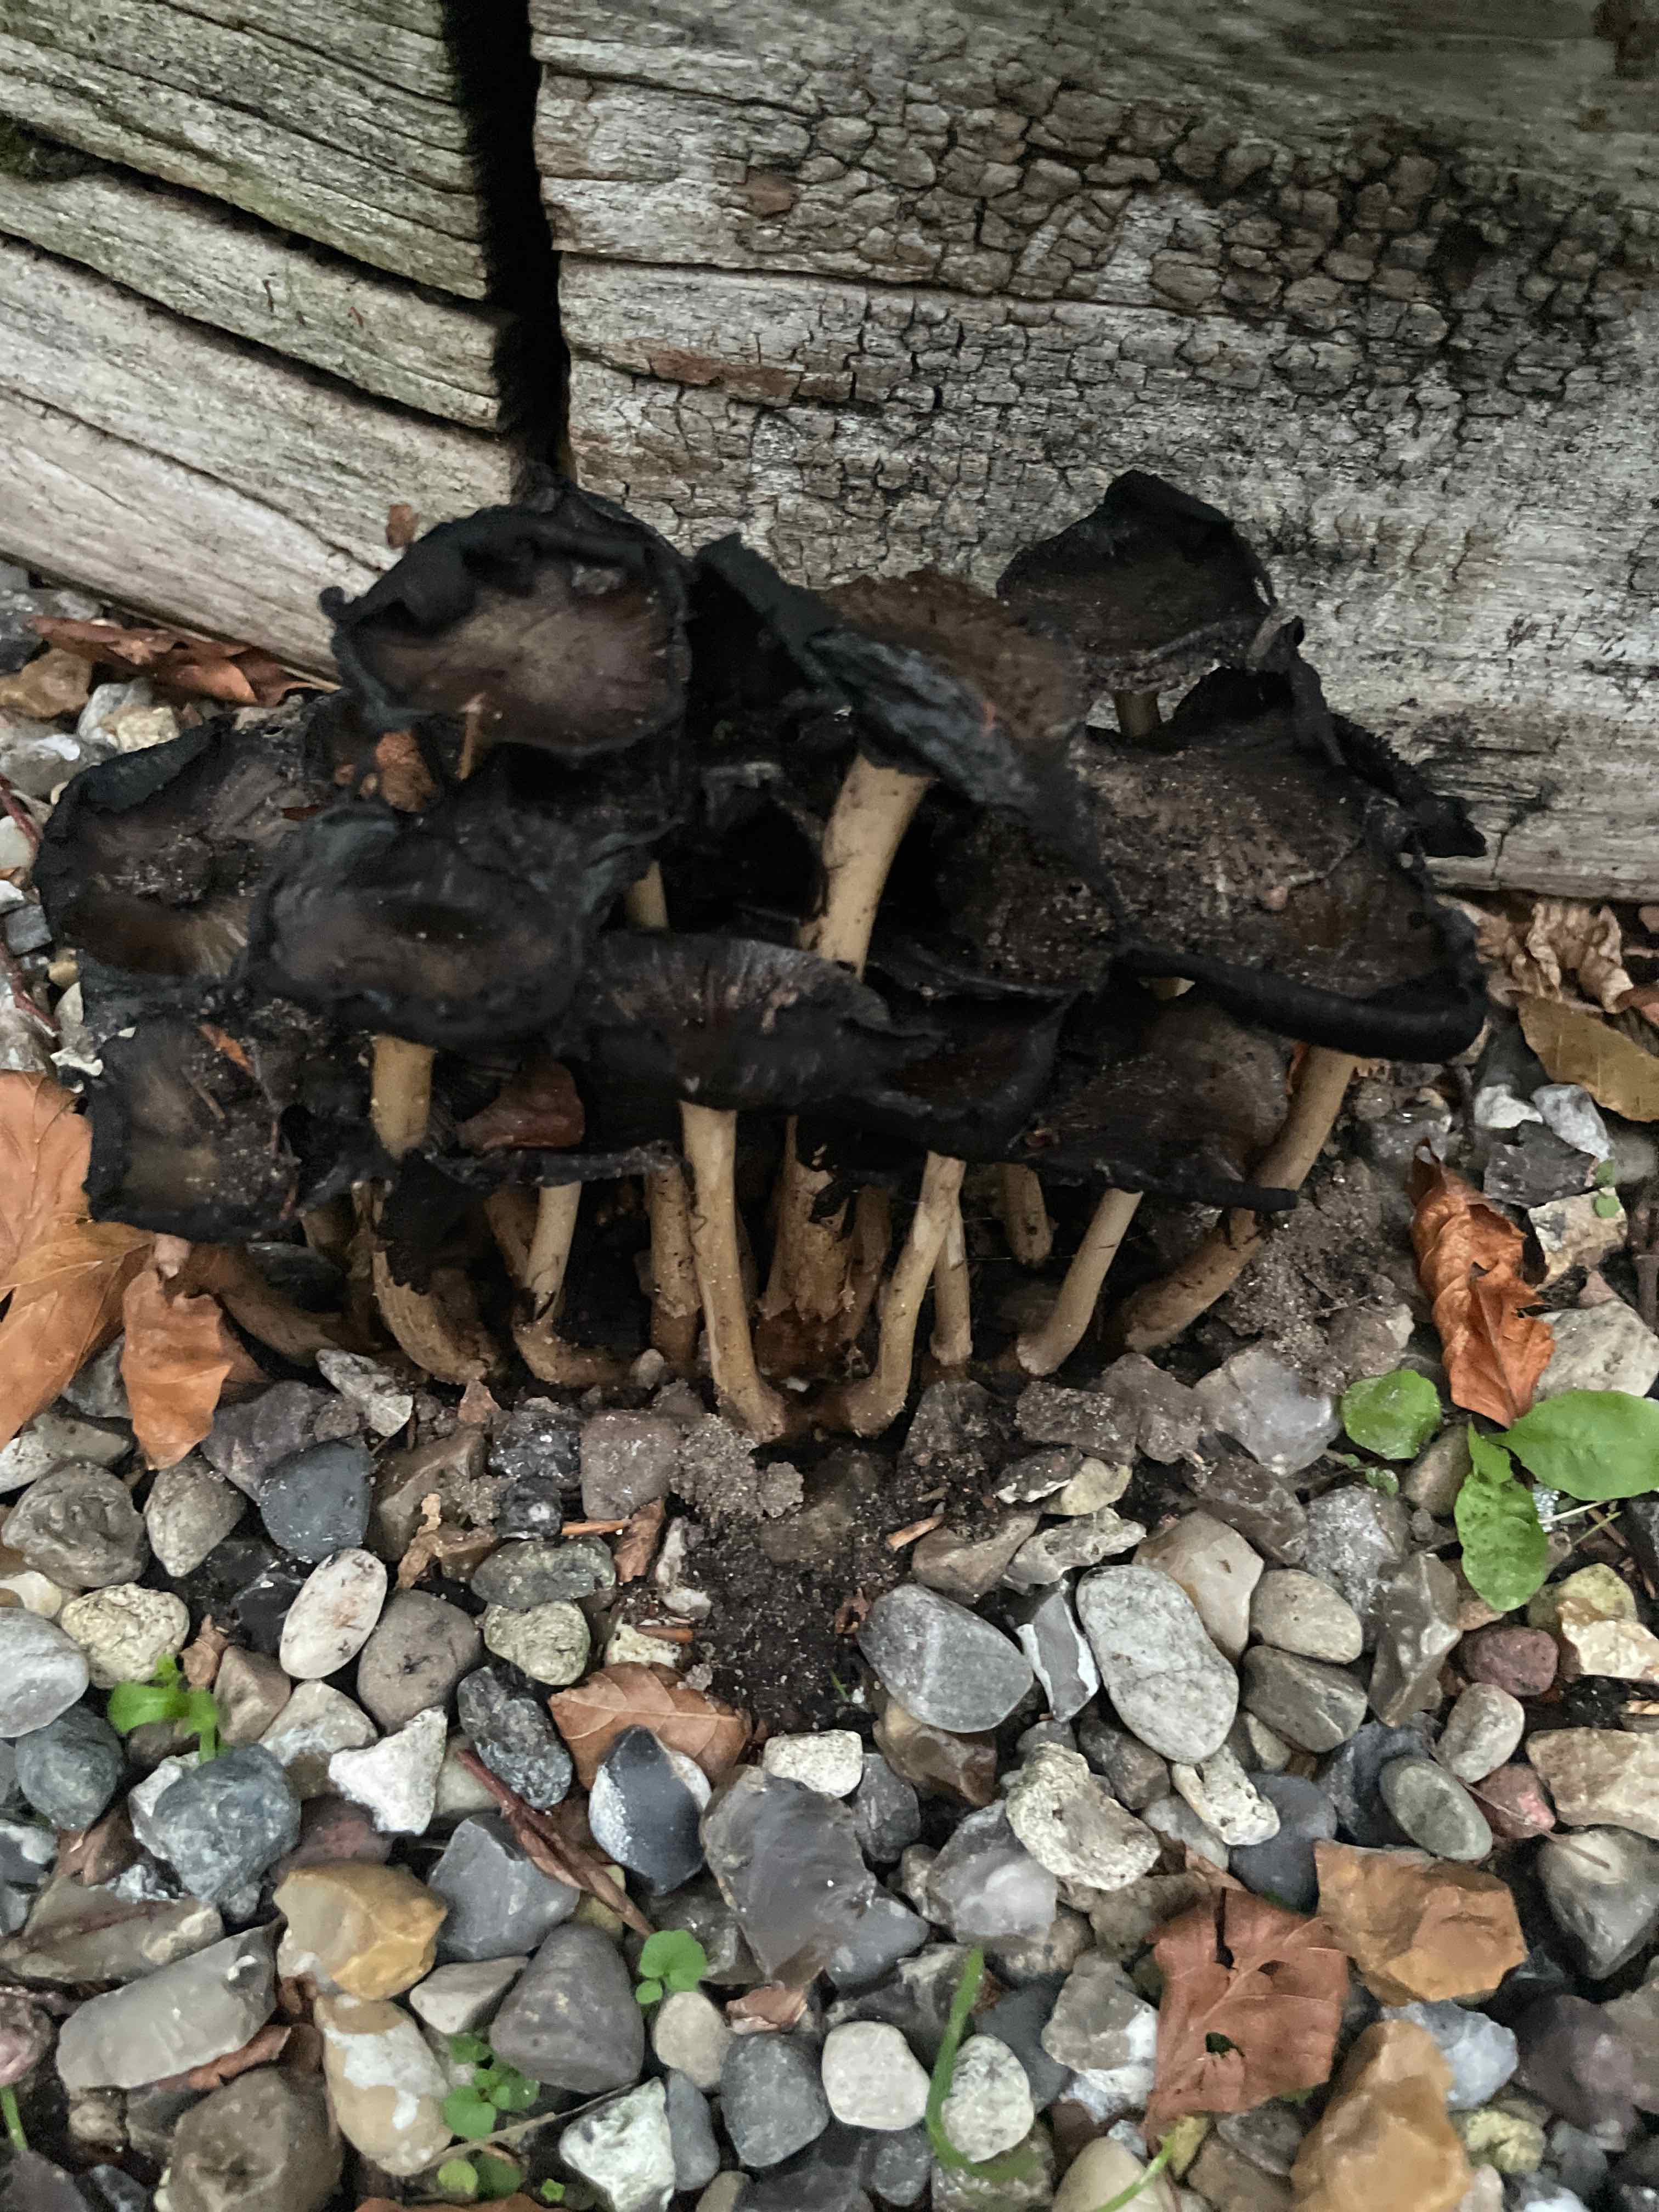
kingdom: Fungi
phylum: Basidiomycota
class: Agaricomycetes
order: Agaricales
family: Psathyrellaceae
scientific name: Psathyrellaceae
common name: mørkhatfamilien
